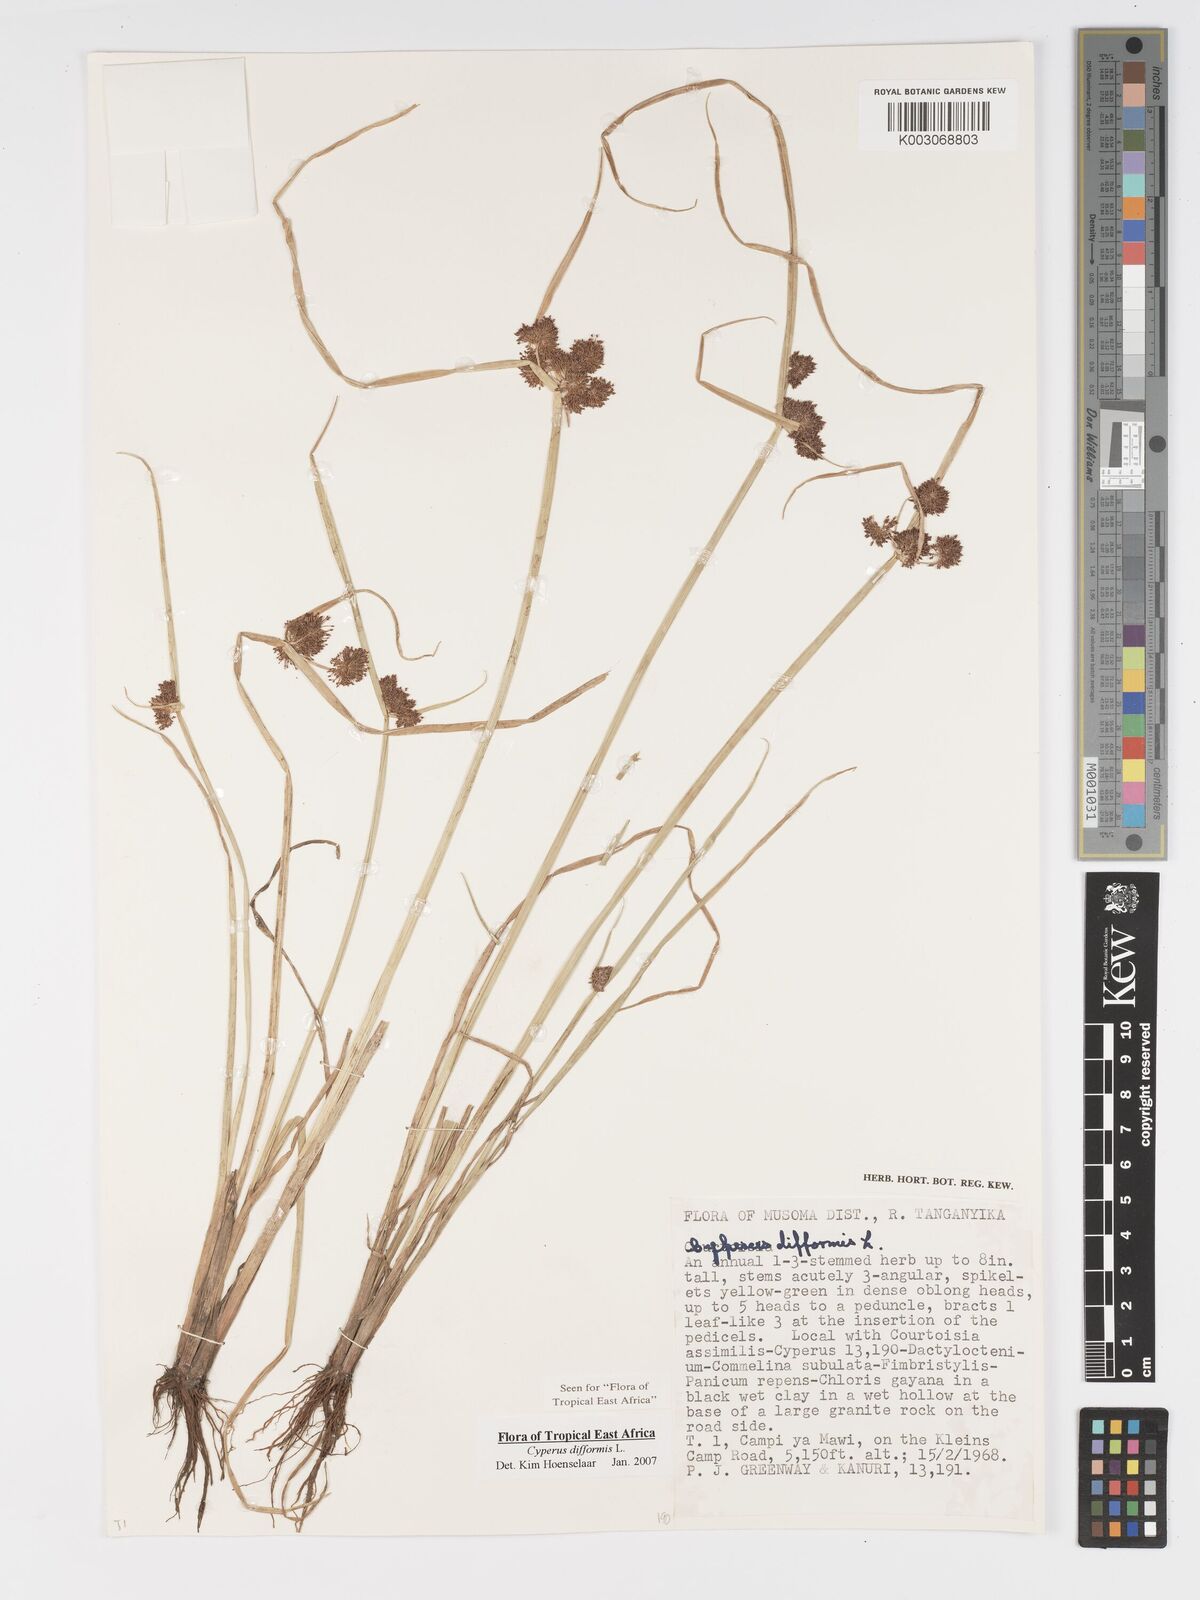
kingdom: Plantae
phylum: Tracheophyta
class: Liliopsida
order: Poales
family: Cyperaceae
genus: Cyperus
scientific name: Cyperus difformis
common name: Variable flatsedge
